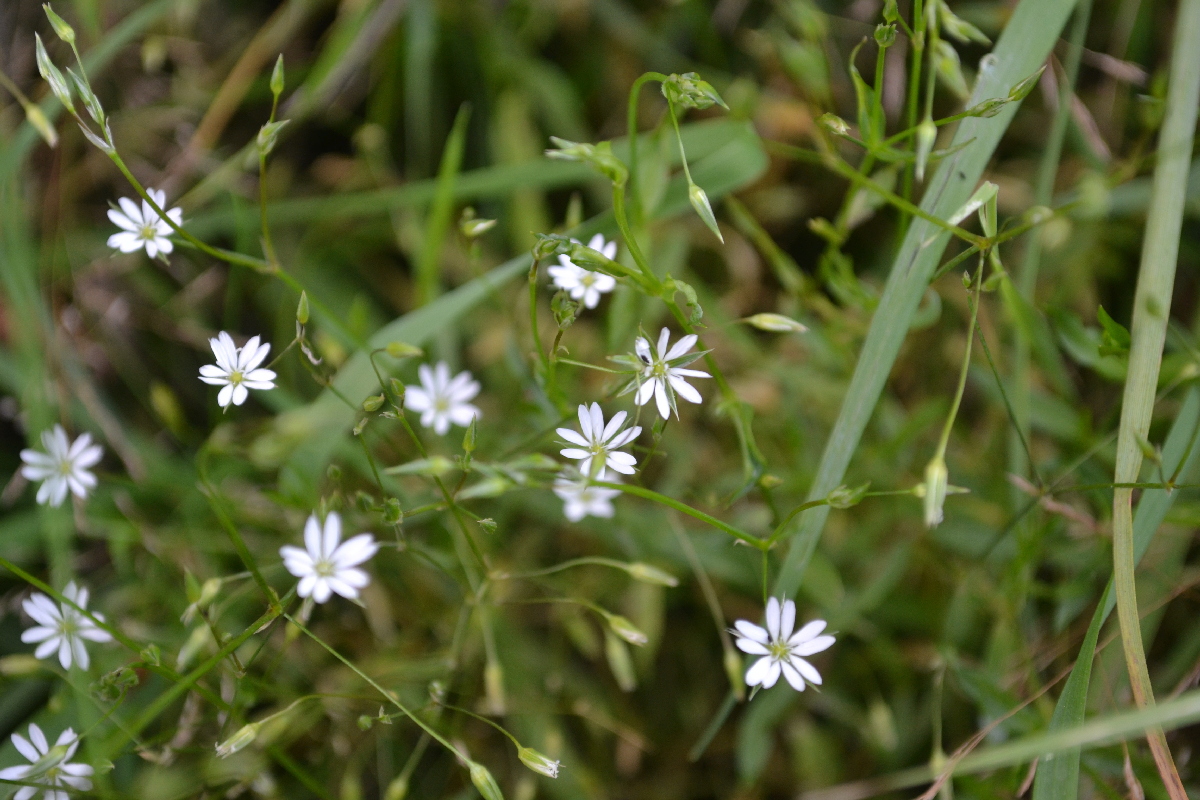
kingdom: Plantae
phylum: Tracheophyta
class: Magnoliopsida
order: Caryophyllales
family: Caryophyllaceae
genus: Stellaria
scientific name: Stellaria graminea
